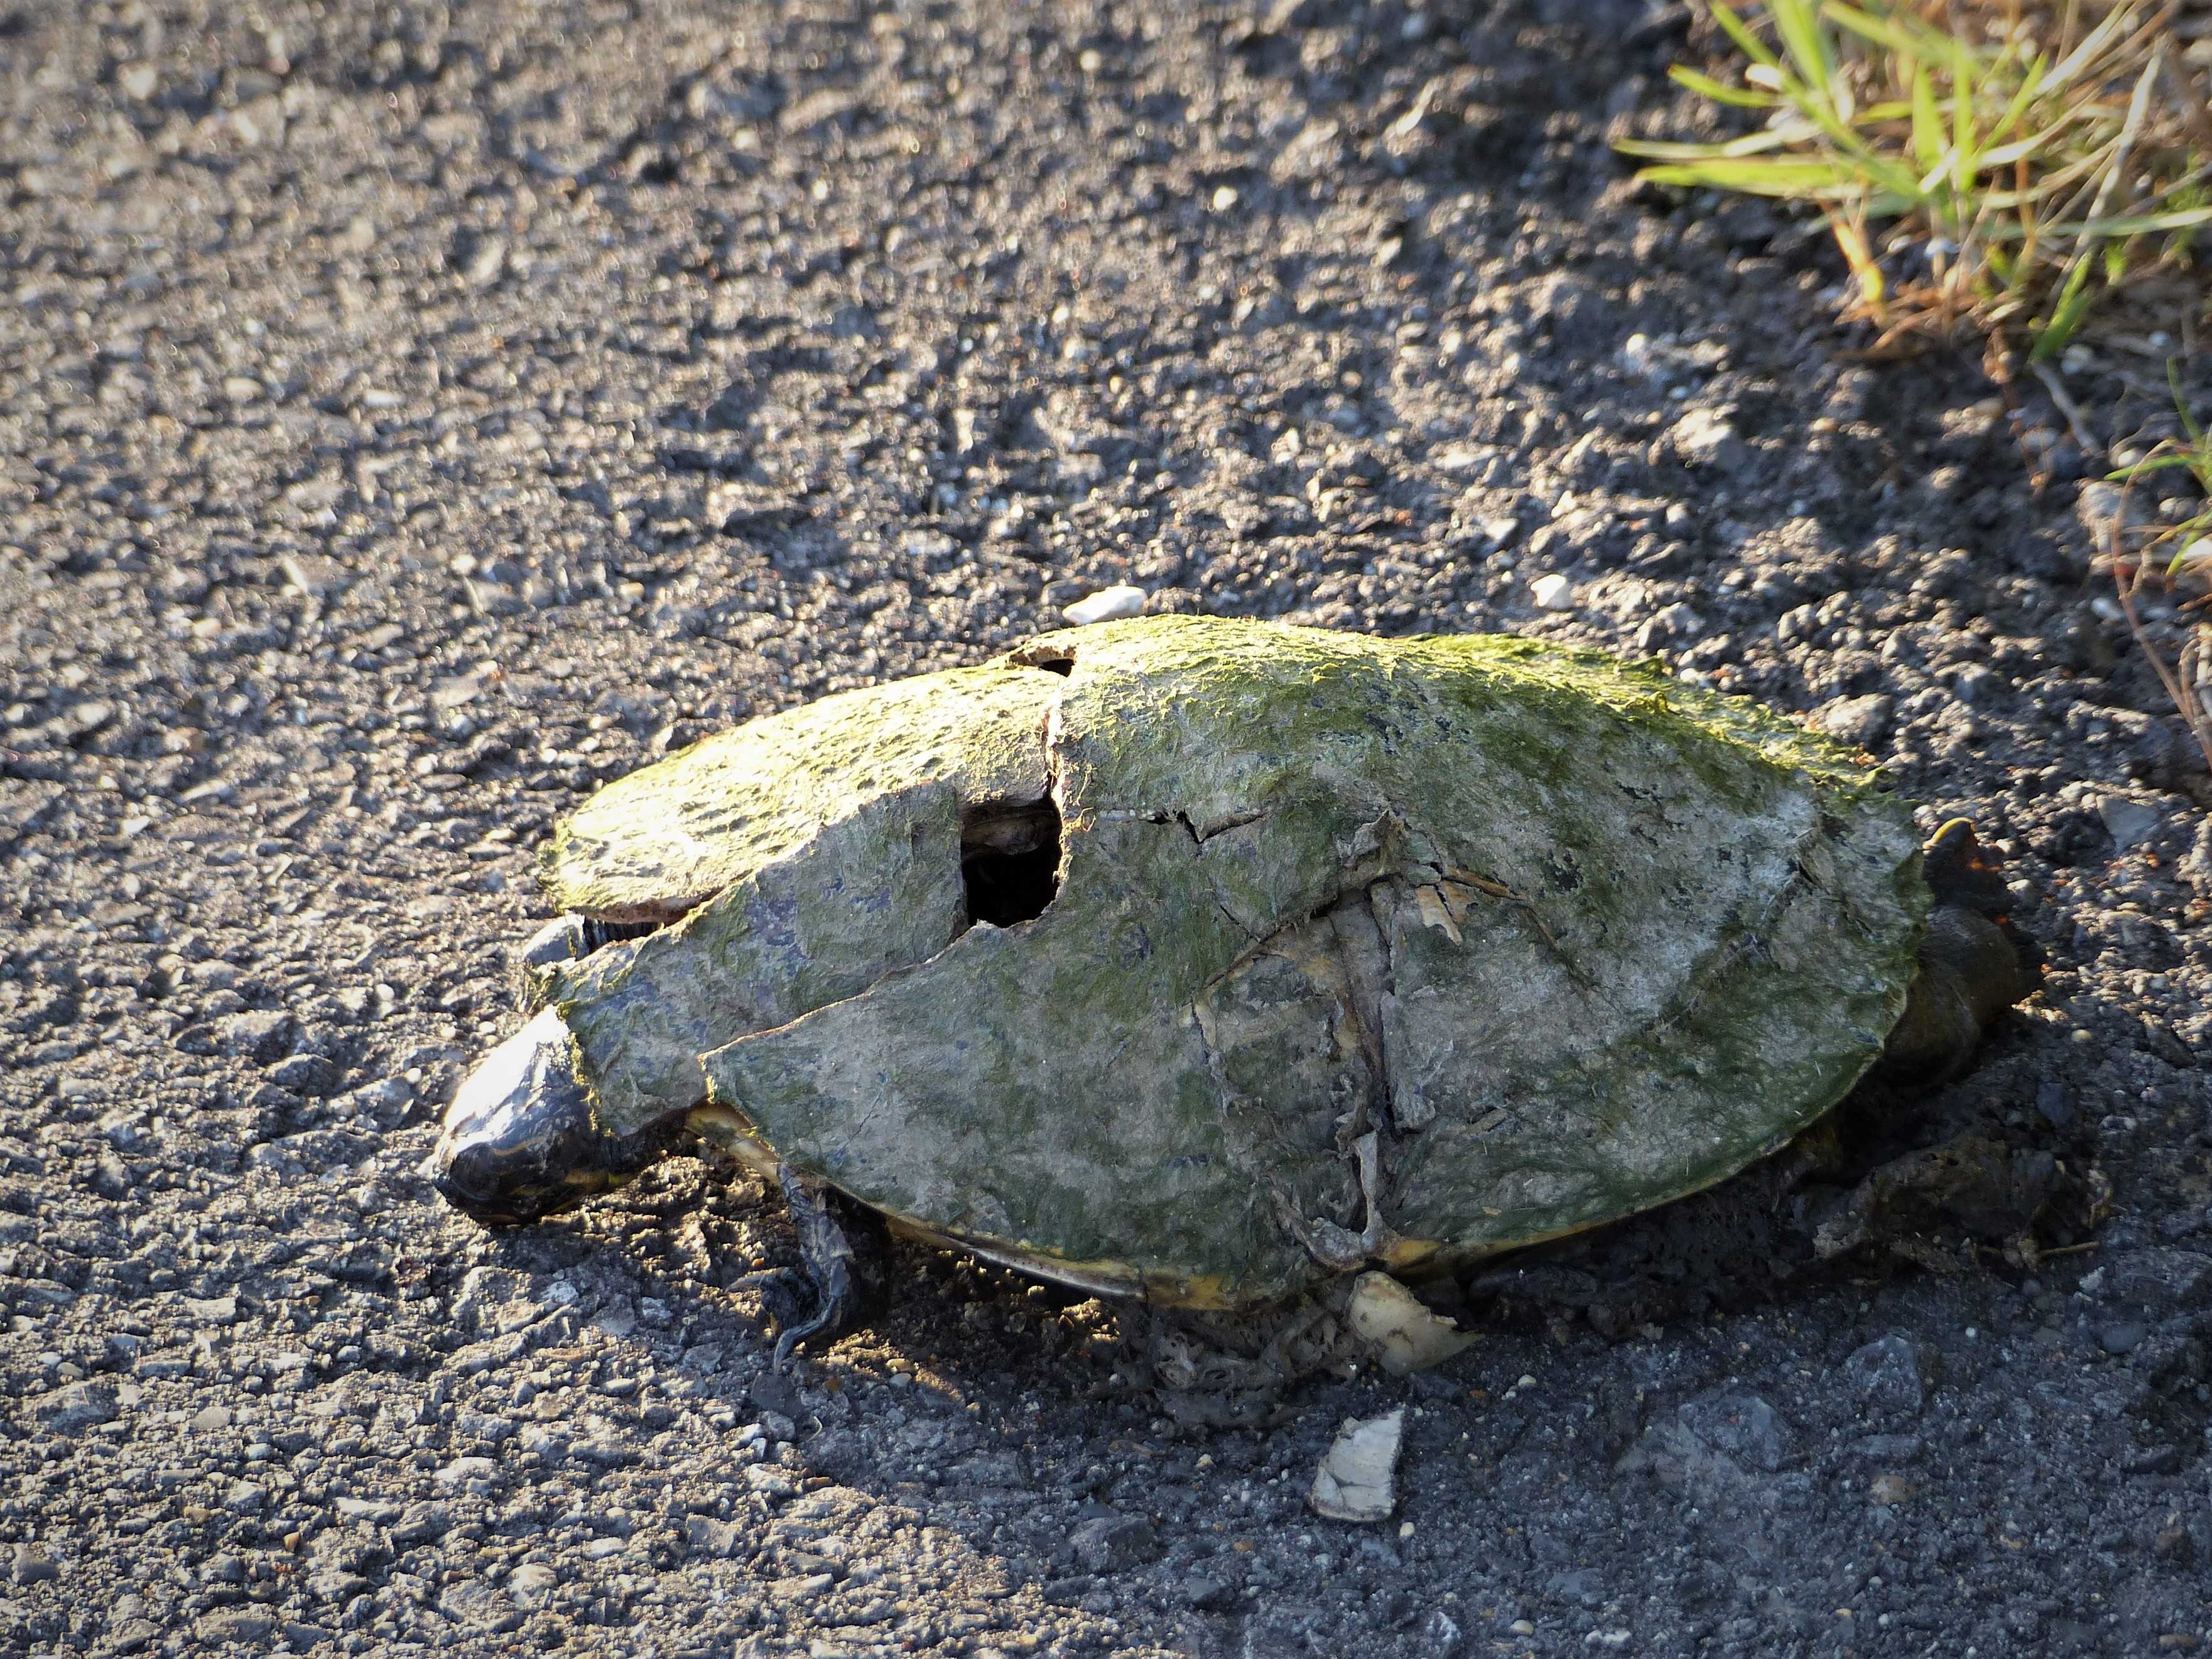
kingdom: Animalia
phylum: Chordata
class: Testudines
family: Emydidae
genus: Pseudemys
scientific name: Pseudemys concinna
